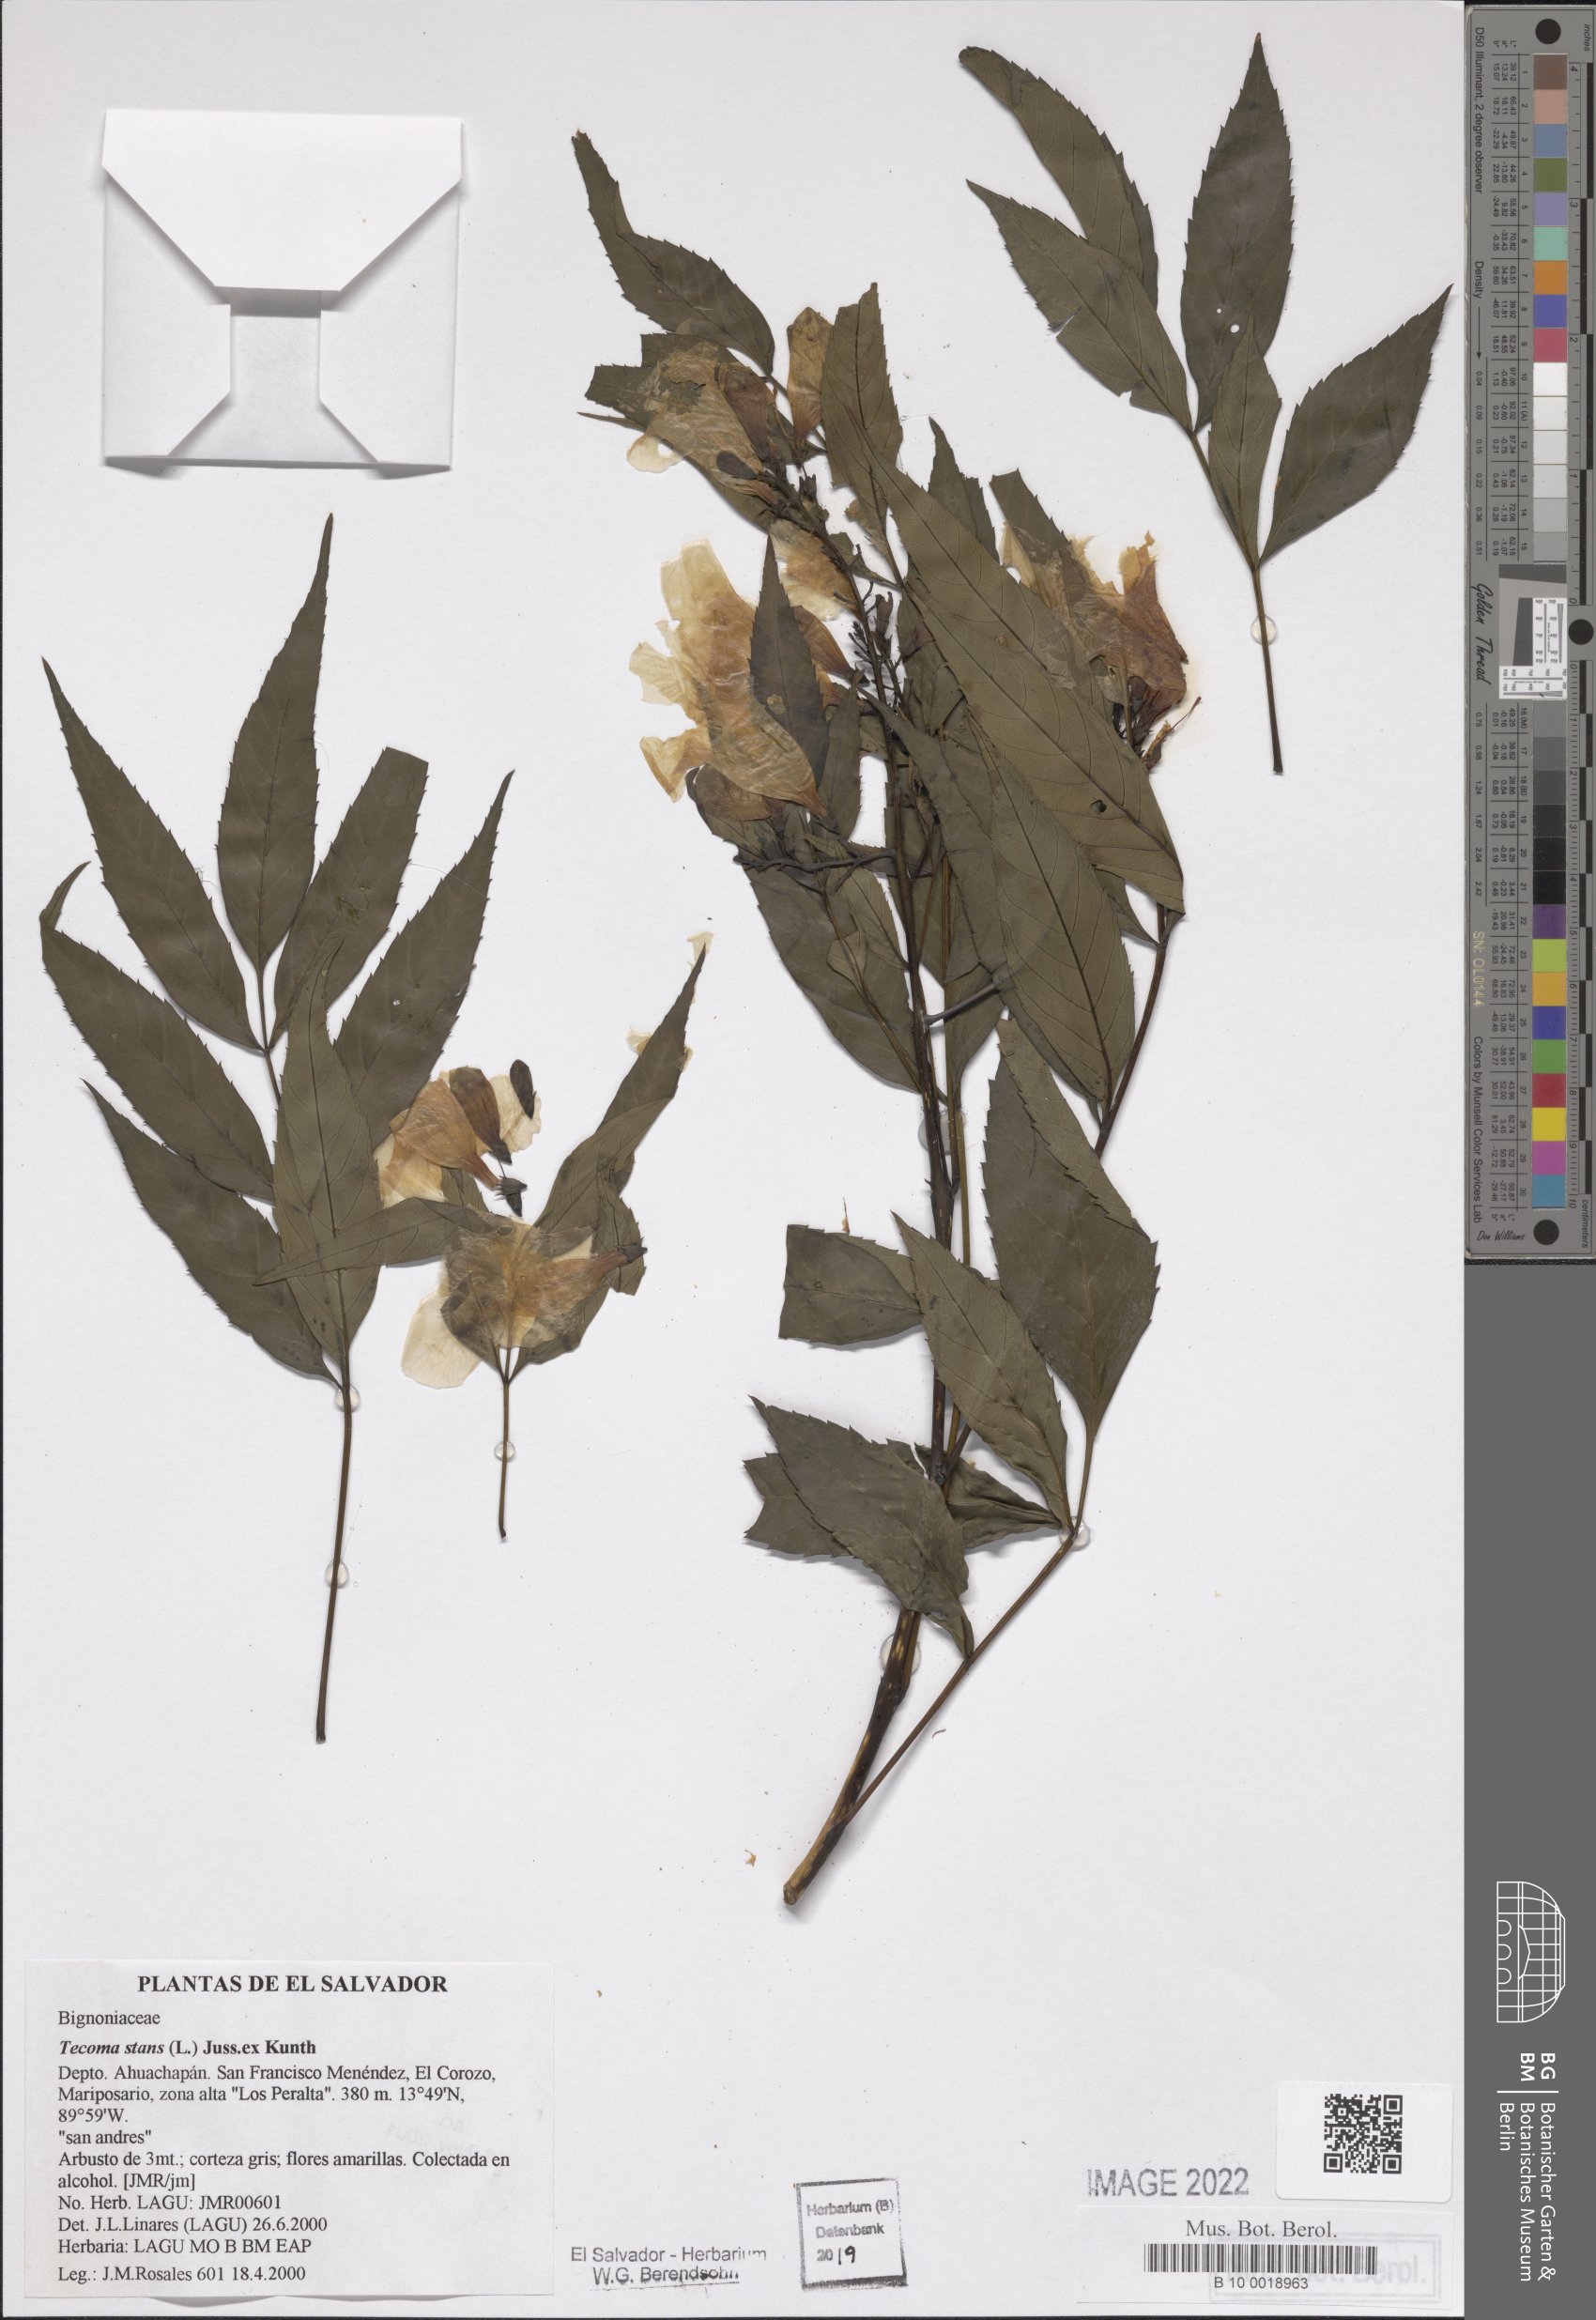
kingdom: Plantae
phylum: Tracheophyta
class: Magnoliopsida
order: Lamiales
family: Bignoniaceae
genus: Tecoma
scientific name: Tecoma stans
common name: Yellow trumpetbush
